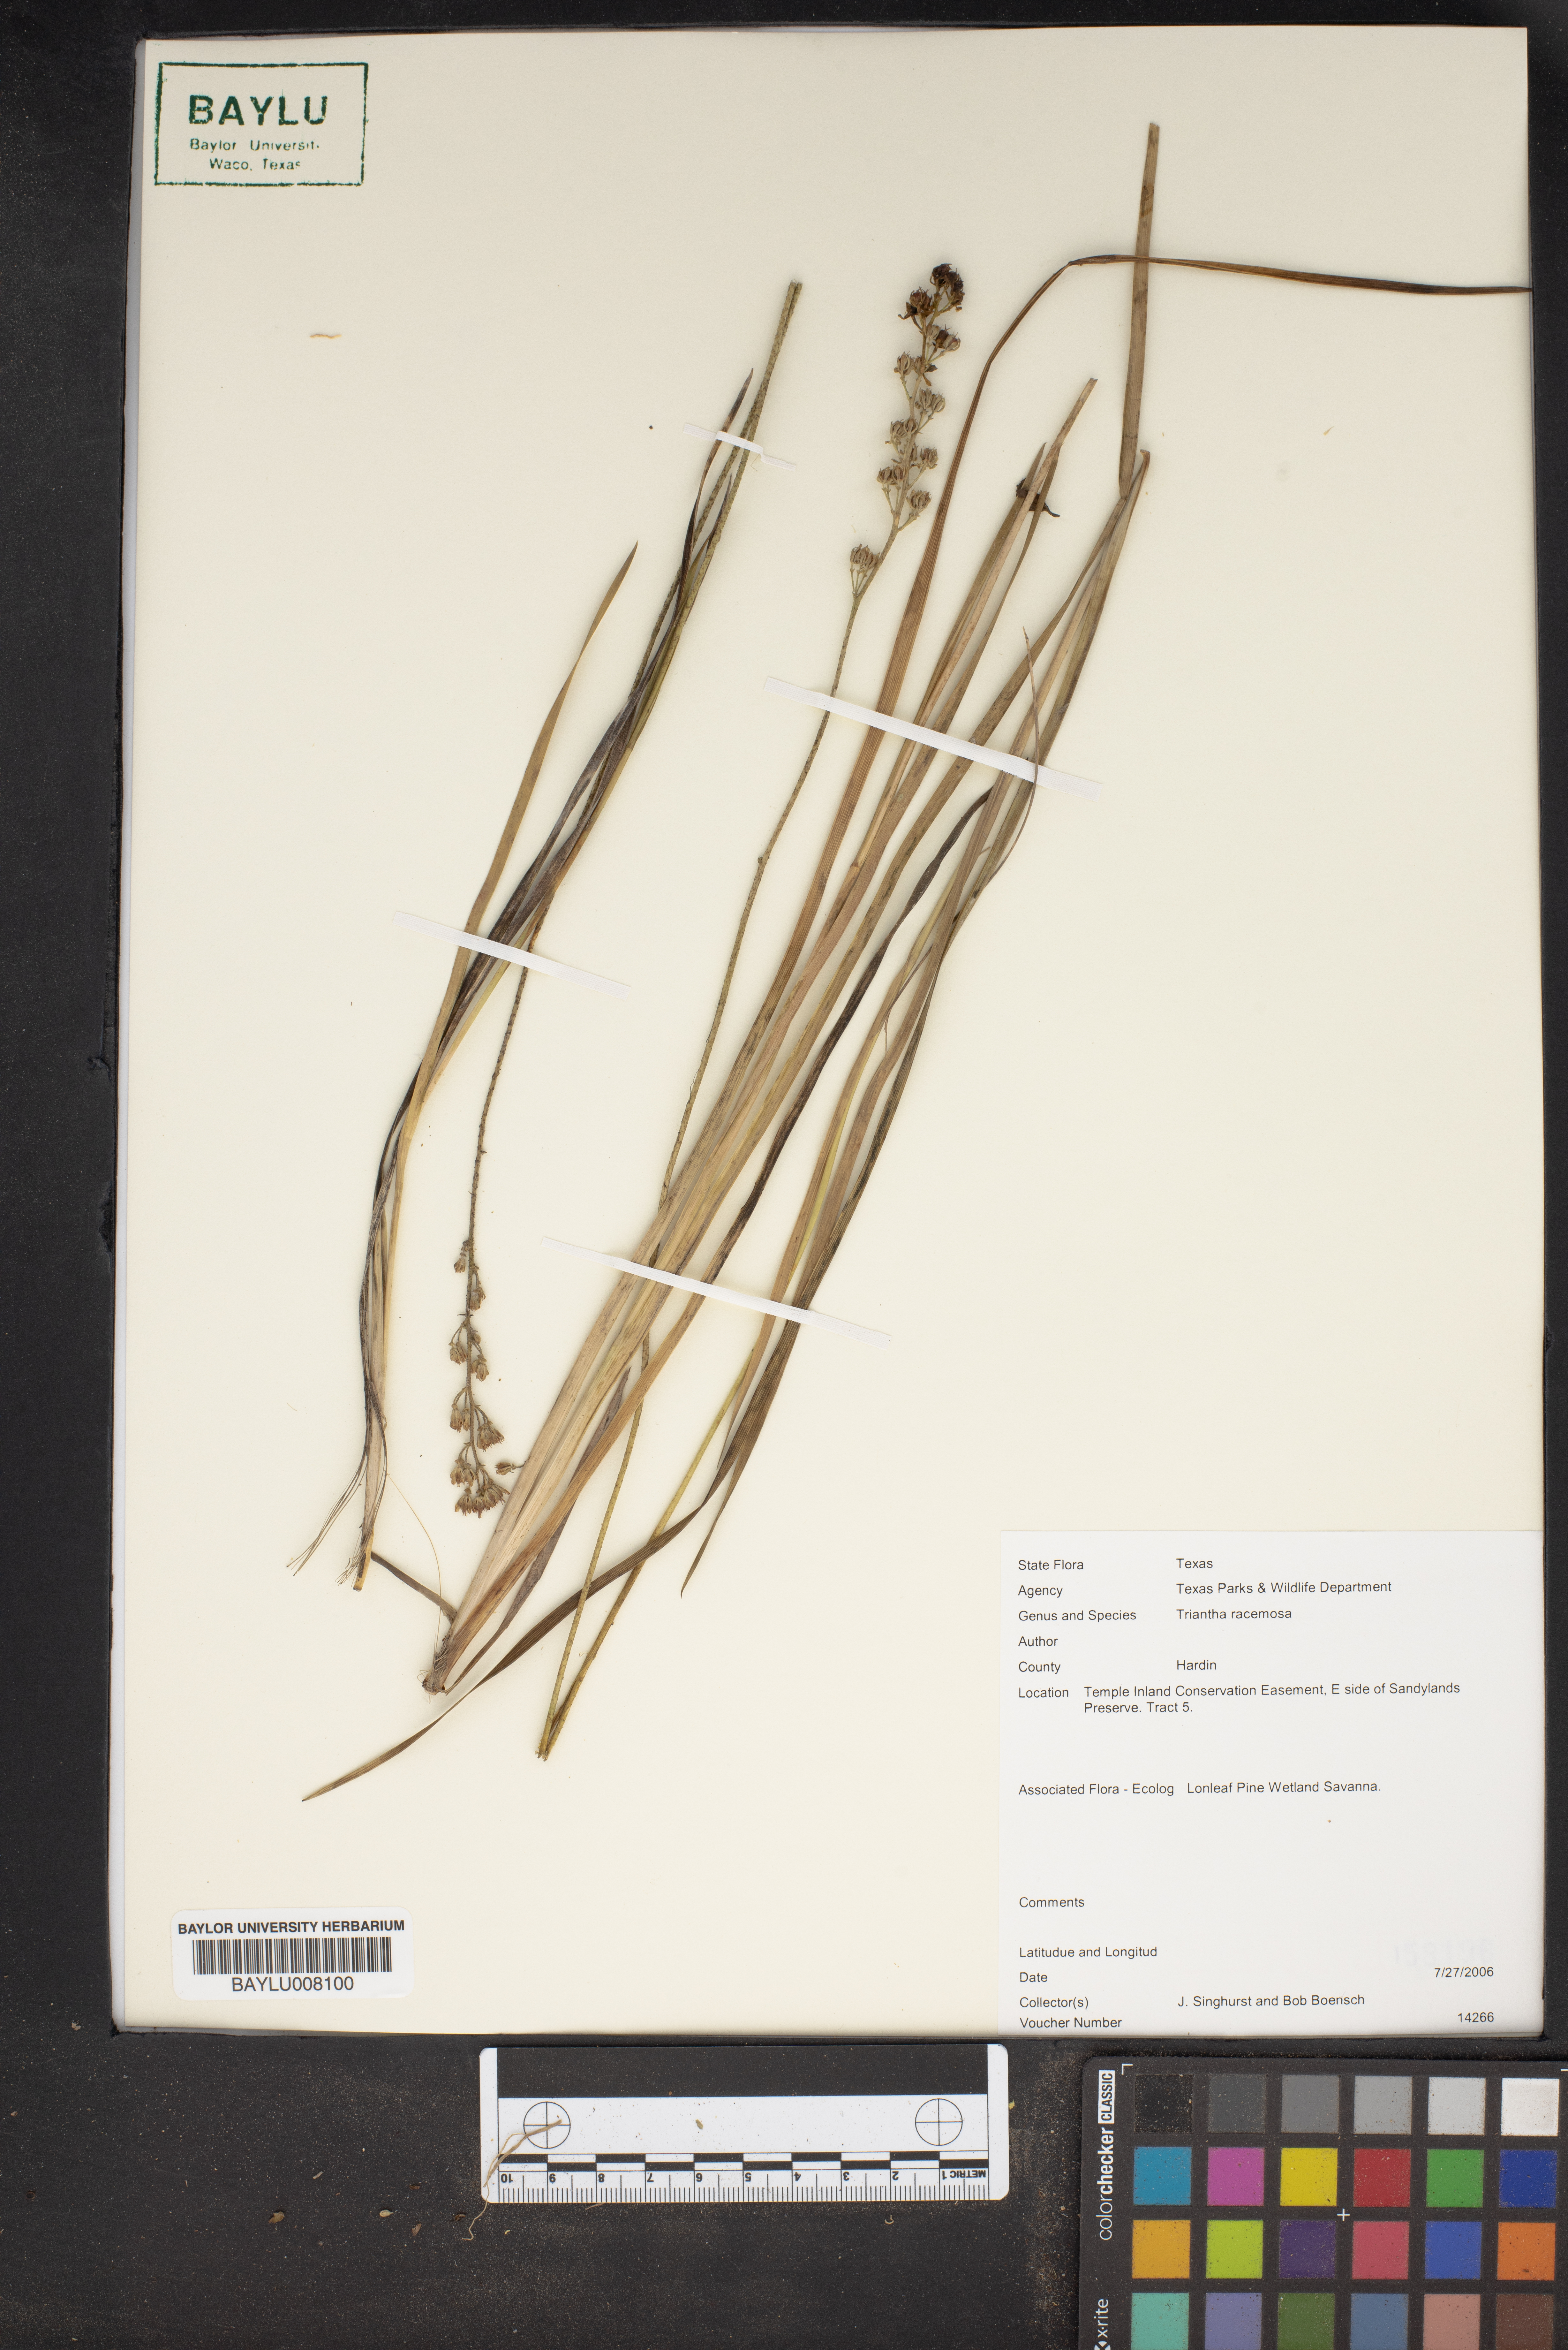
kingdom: Plantae
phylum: Tracheophyta
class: Liliopsida
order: Alismatales
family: Tofieldiaceae
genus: Triantha
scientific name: Triantha racemosa
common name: Coastal false asphodel
